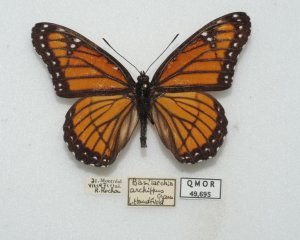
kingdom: Animalia
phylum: Arthropoda
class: Insecta
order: Lepidoptera
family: Nymphalidae
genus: Limenitis
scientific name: Limenitis archippus
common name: Viceroy
